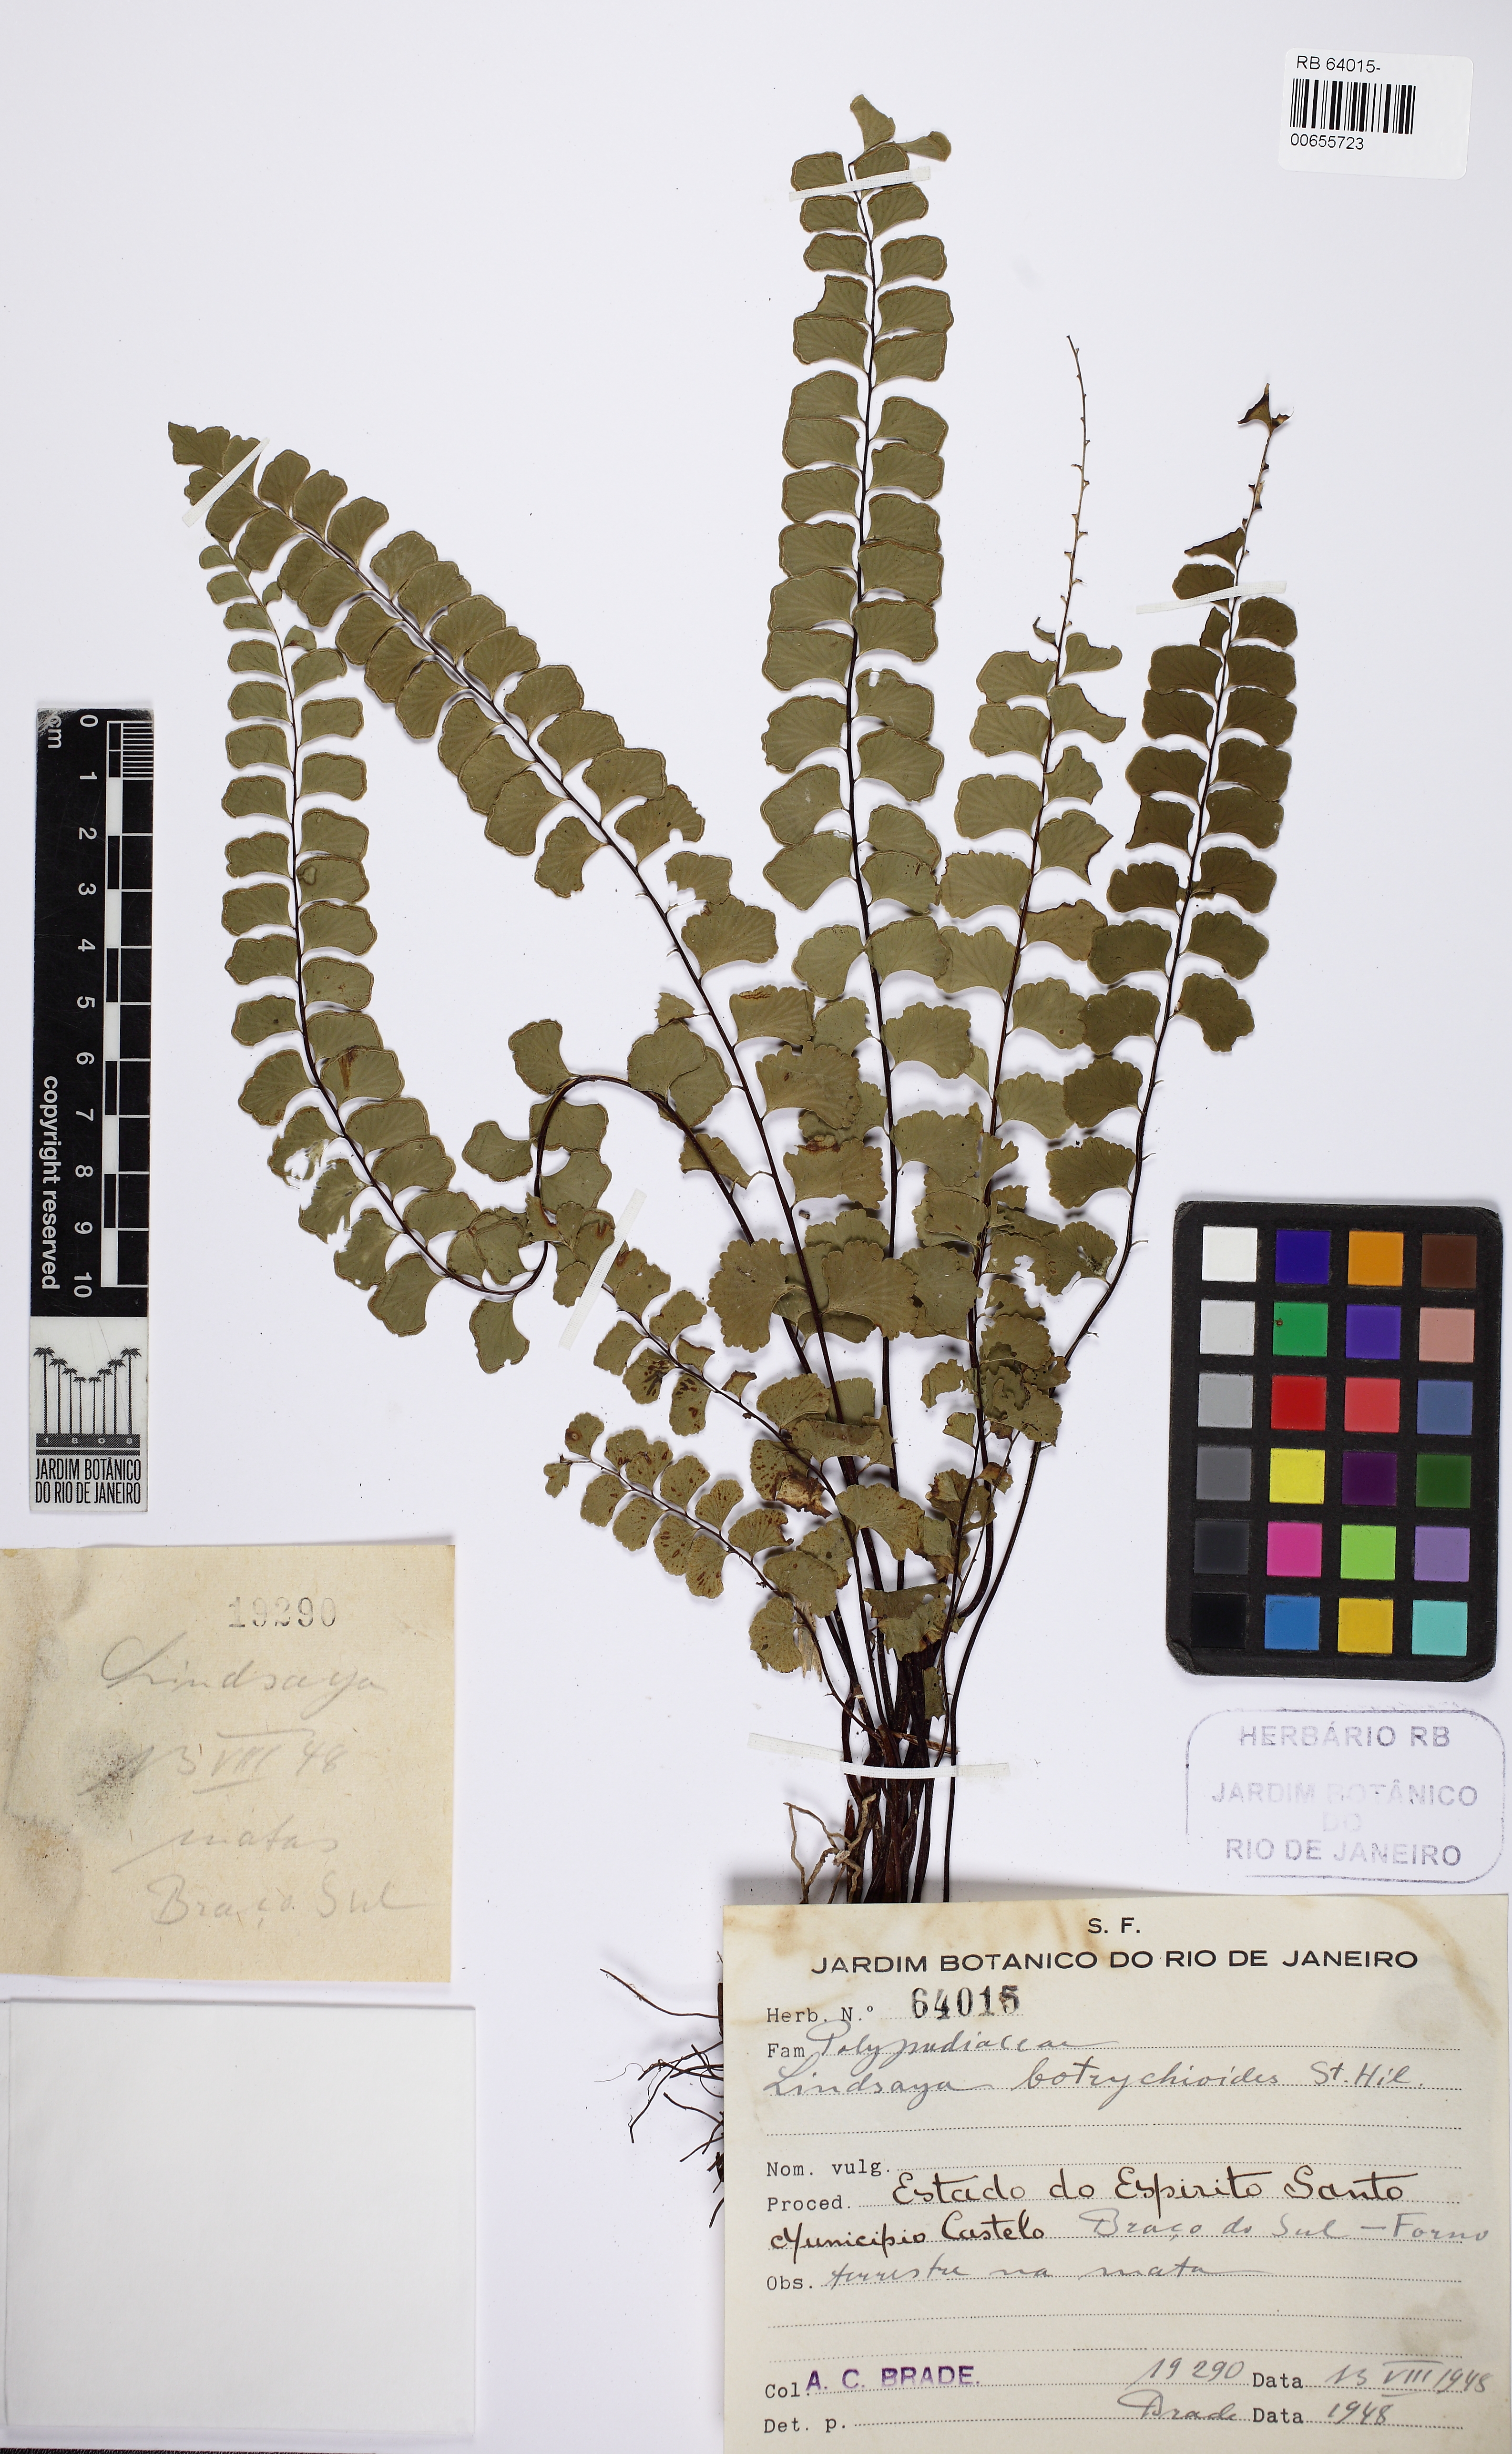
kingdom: Plantae
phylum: Tracheophyta
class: Polypodiopsida
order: Polypodiales
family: Lindsaeaceae
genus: Lindsaea
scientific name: Lindsaea botrychioides
